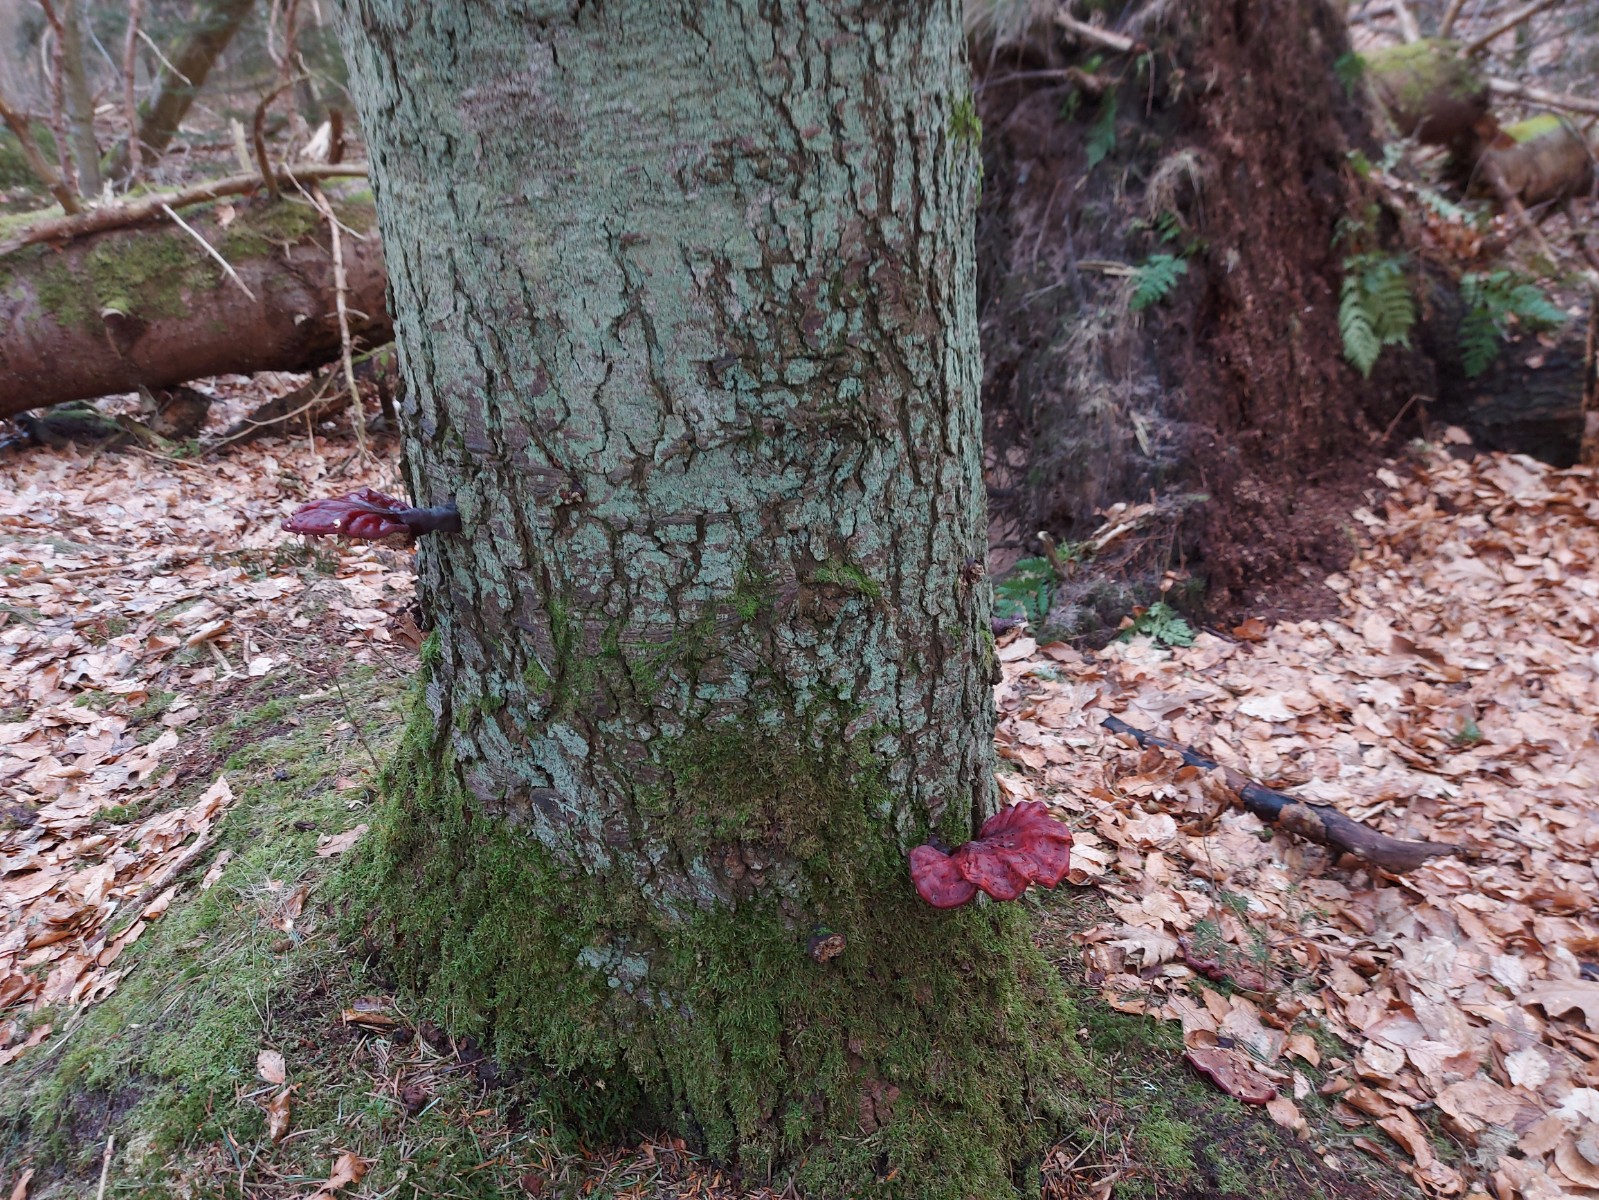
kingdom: Fungi
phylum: Basidiomycota
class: Agaricomycetes
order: Polyporales
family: Polyporaceae
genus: Ganoderma
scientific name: Ganoderma lucidum
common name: skinnende lakporesvamp
